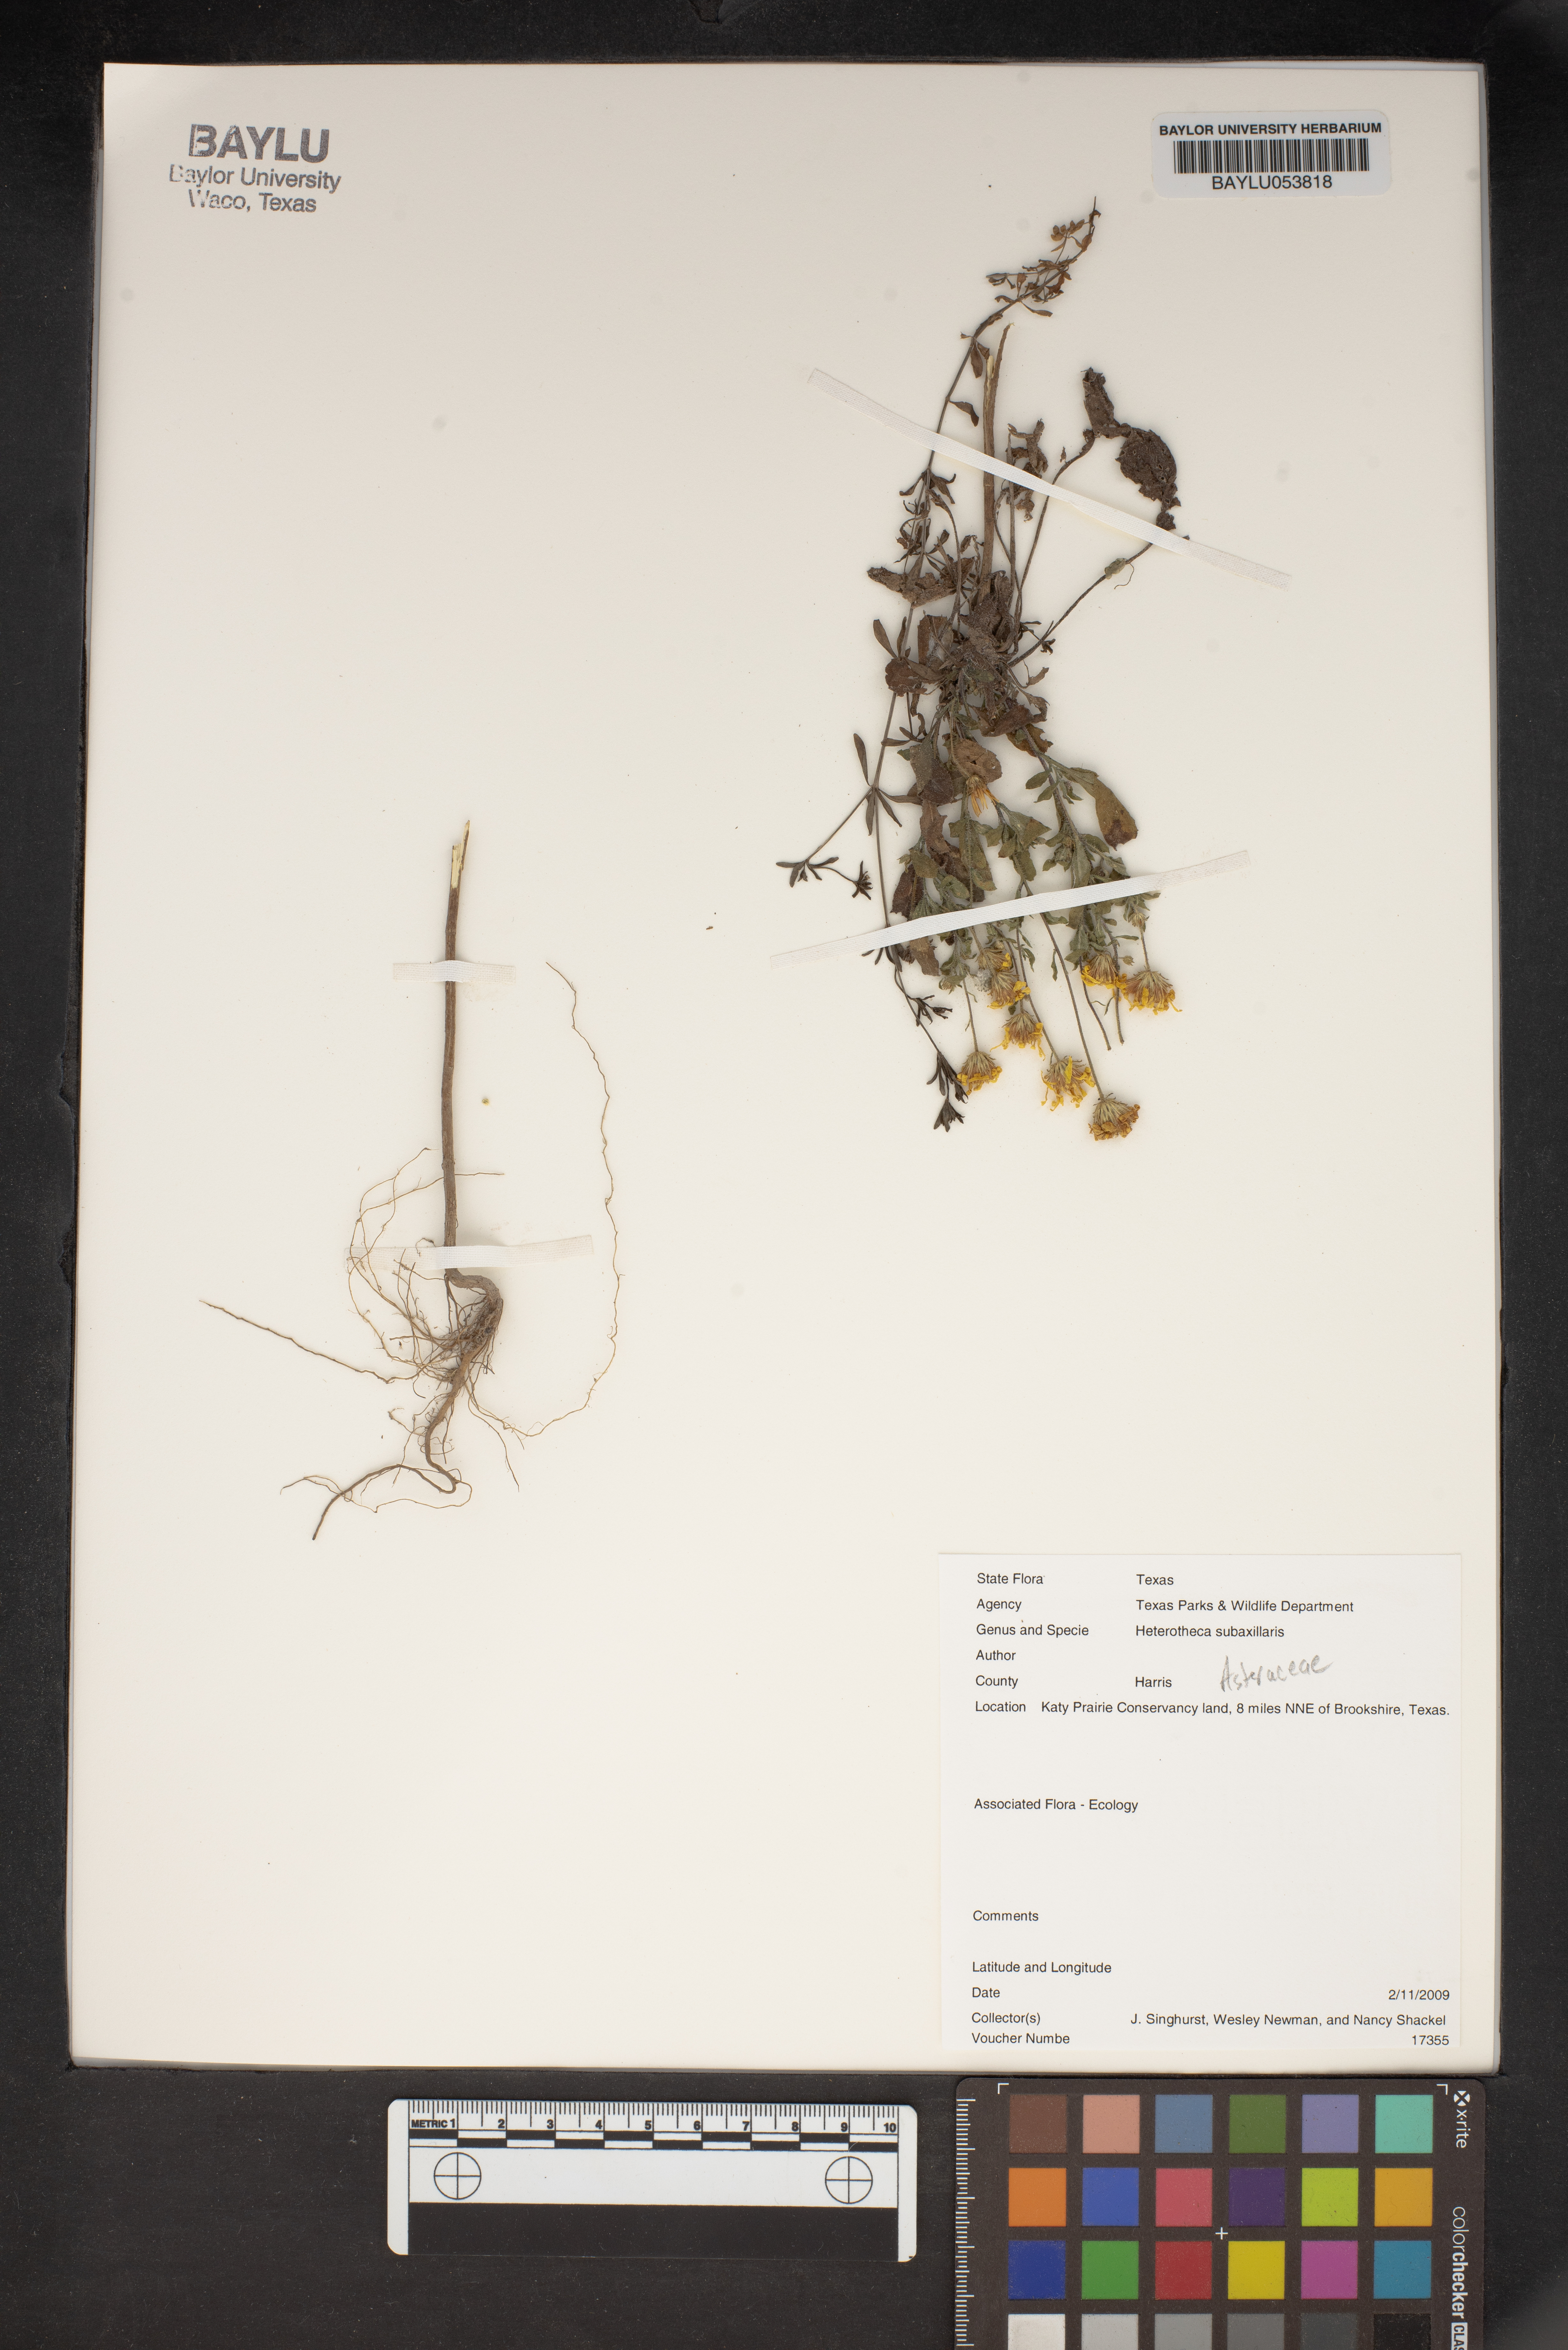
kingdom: Plantae
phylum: Tracheophyta
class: Magnoliopsida
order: Asterales
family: Asteraceae
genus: Heterotheca
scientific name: Heterotheca subaxillaris
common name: Camphorweed
